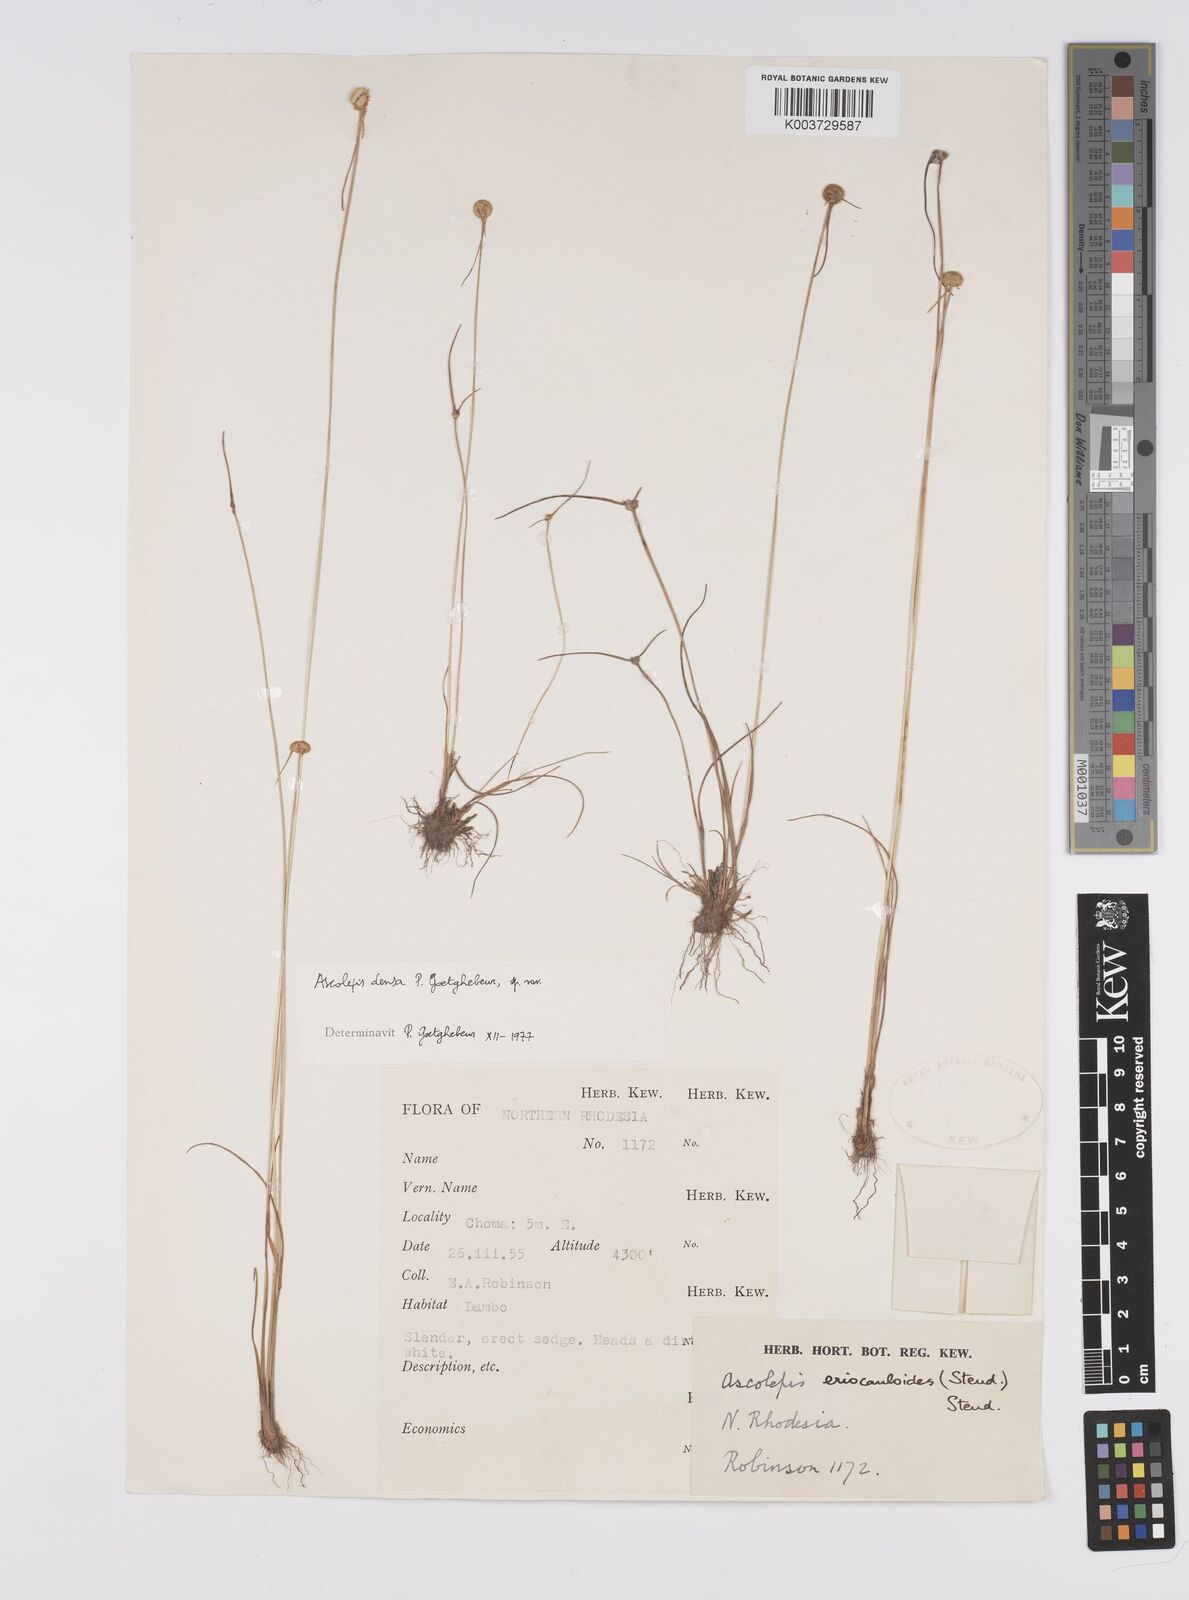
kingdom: Plantae
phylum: Tracheophyta
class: Liliopsida
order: Poales
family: Cyperaceae
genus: Cyperus
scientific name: Cyperus
